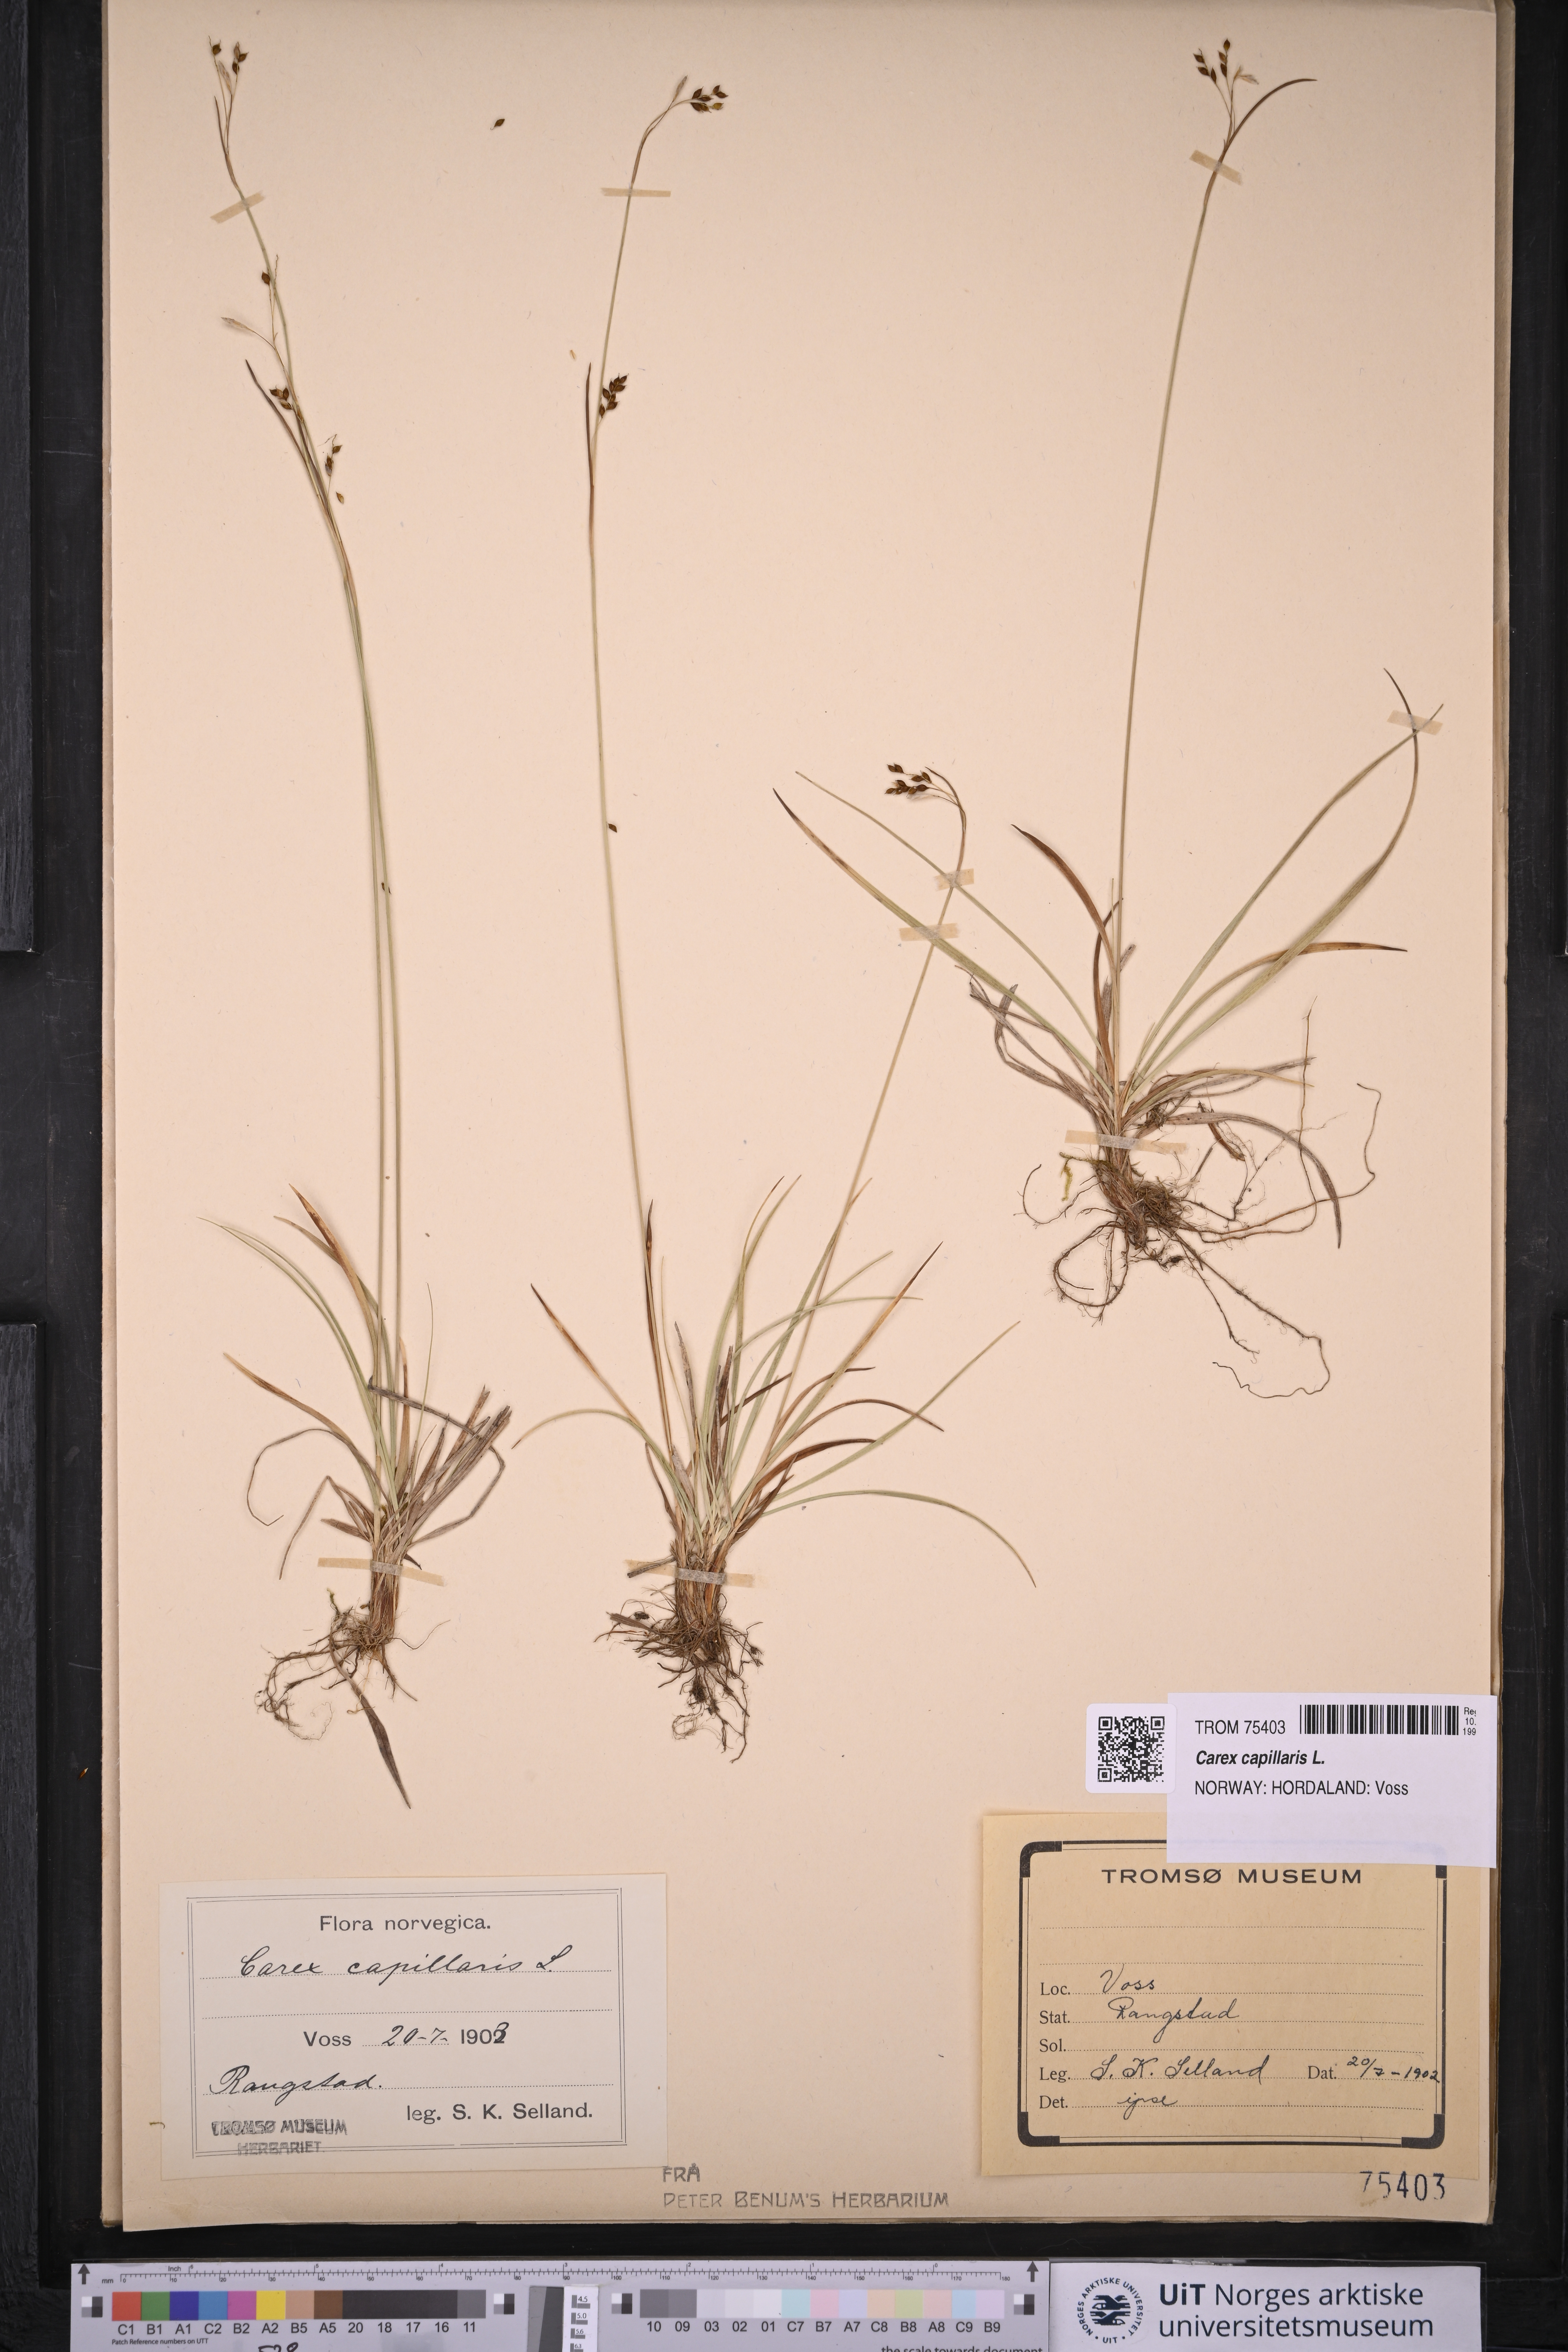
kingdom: Plantae
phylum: Tracheophyta
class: Liliopsida
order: Poales
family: Cyperaceae
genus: Carex
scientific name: Carex capillaris
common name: Hair sedge
